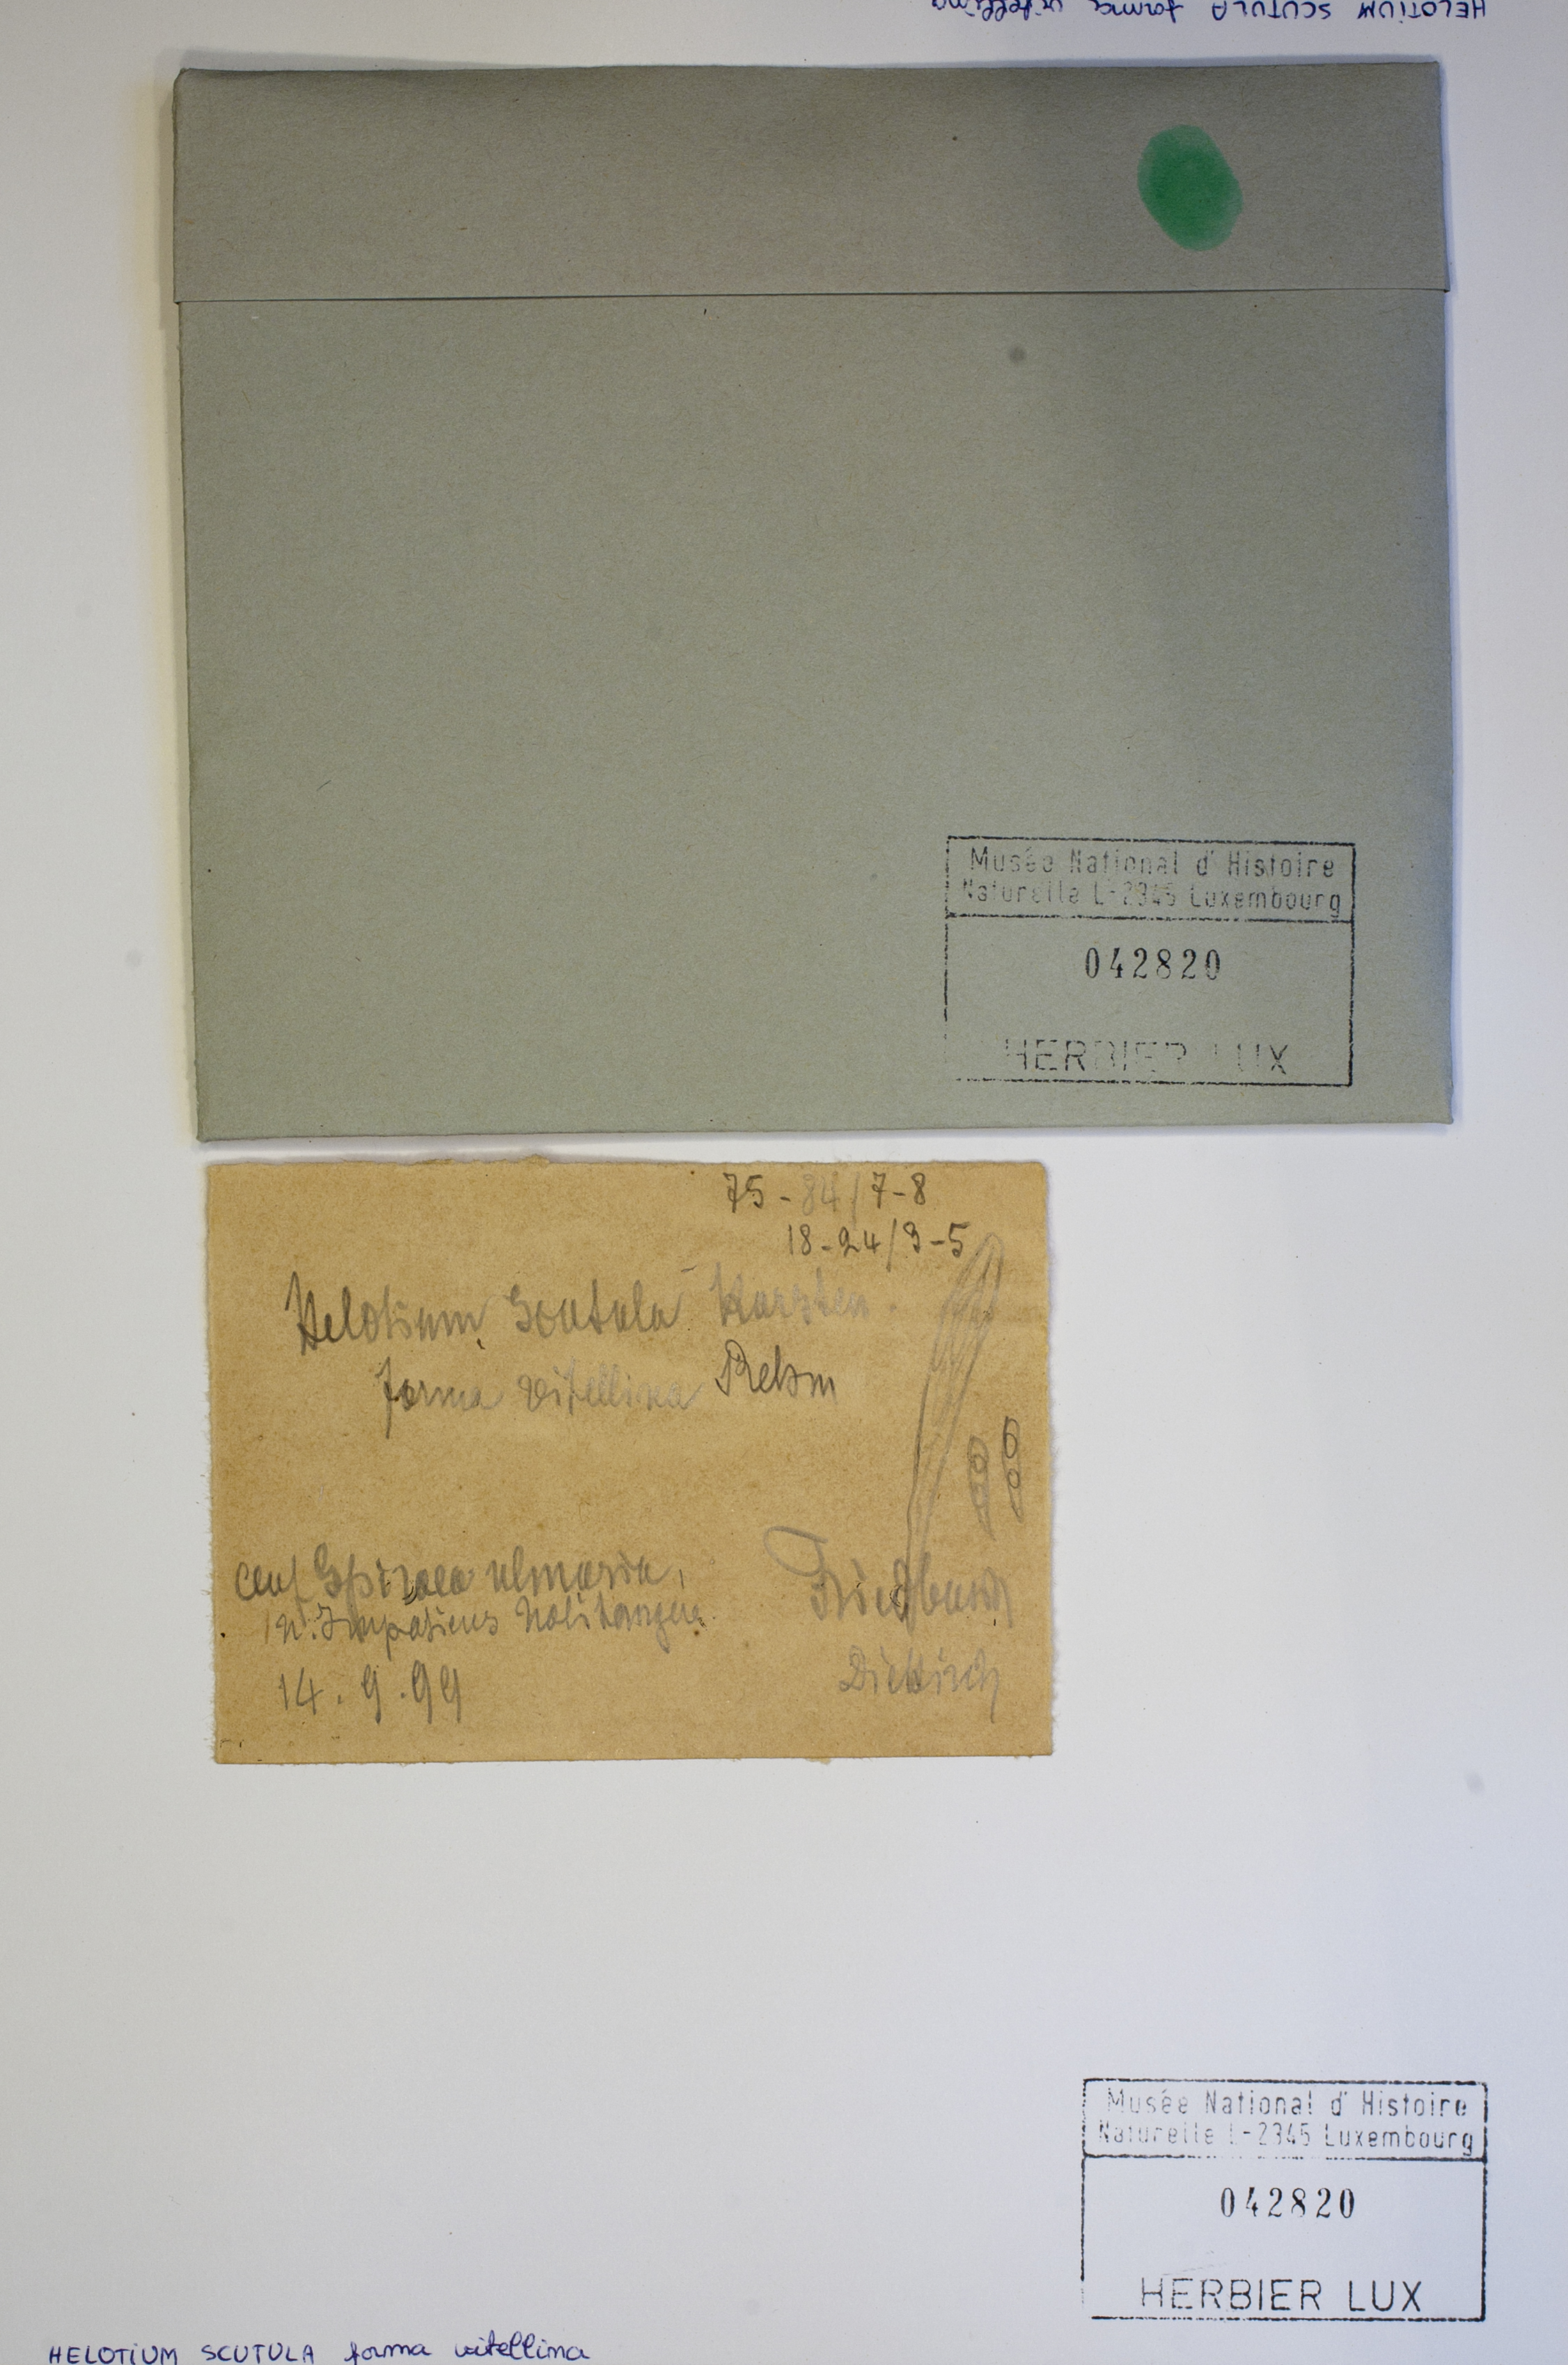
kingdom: Fungi
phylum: Ascomycota
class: Leotiomycetes
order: Helotiales
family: Helotiaceae
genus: Hymenoscyphus
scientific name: Hymenoscyphus vitellinus
